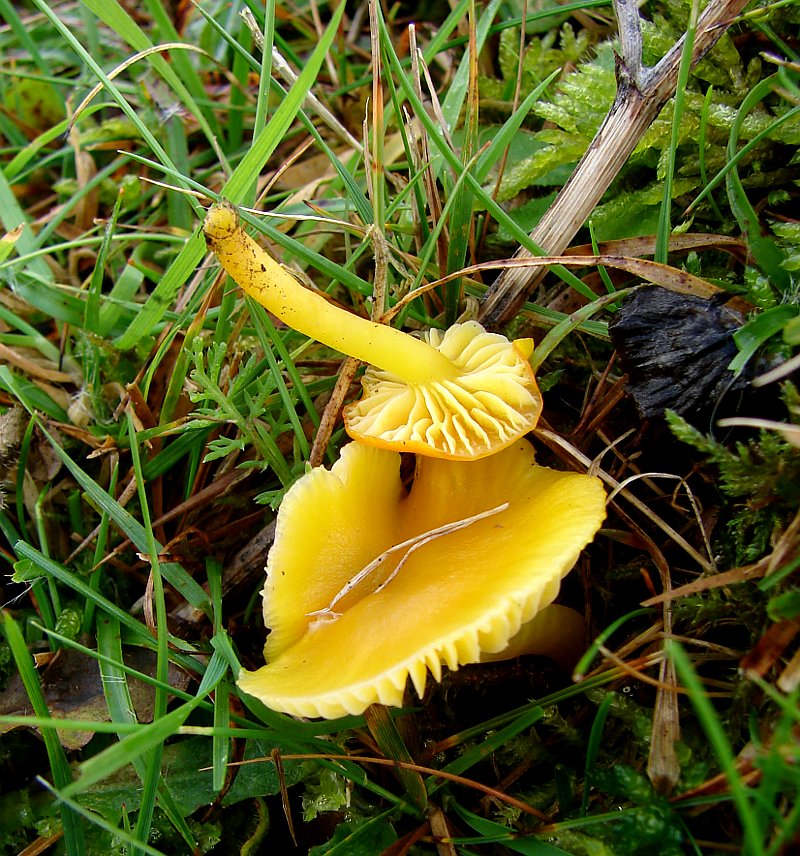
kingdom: Fungi
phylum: Basidiomycota
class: Agaricomycetes
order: Agaricales
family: Hygrophoraceae
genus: Hygrocybe
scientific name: Hygrocybe ceracea
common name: voksgul vokshat
